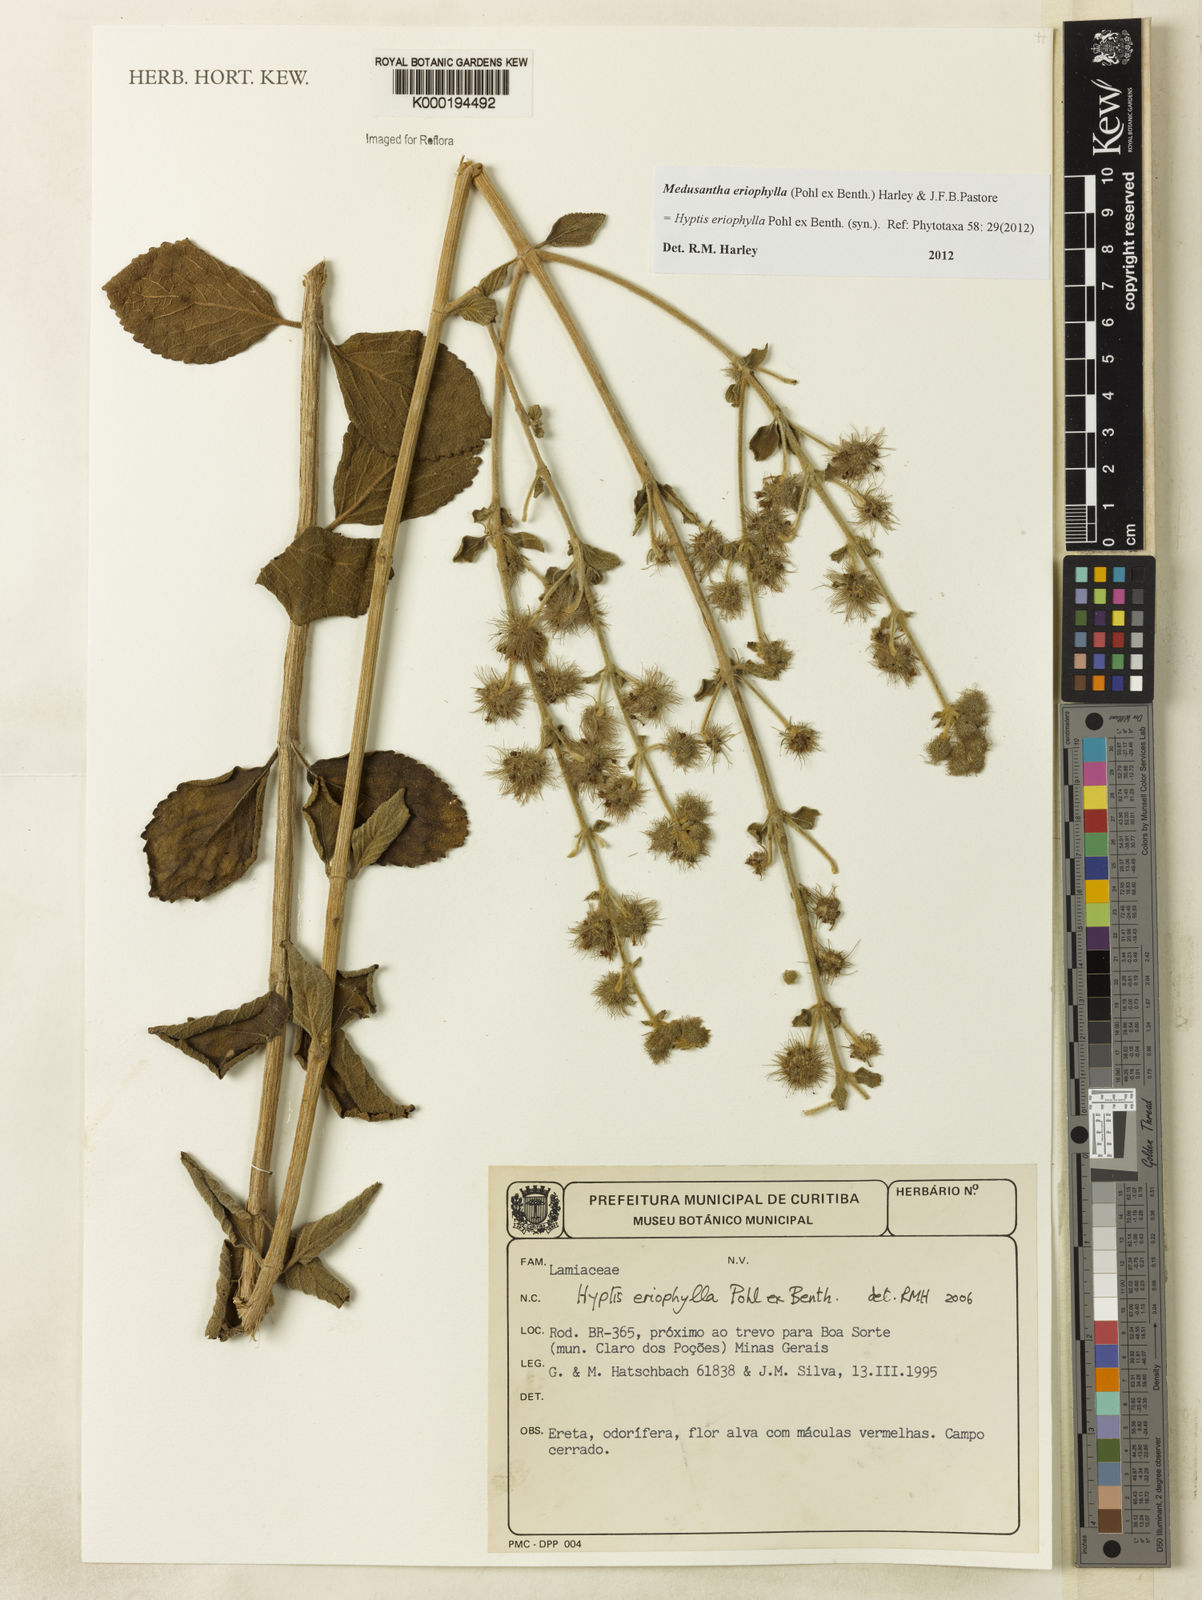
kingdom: Plantae
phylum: Tracheophyta
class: Magnoliopsida
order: Lamiales
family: Lamiaceae
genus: Medusantha
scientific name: Medusantha eriophylla
